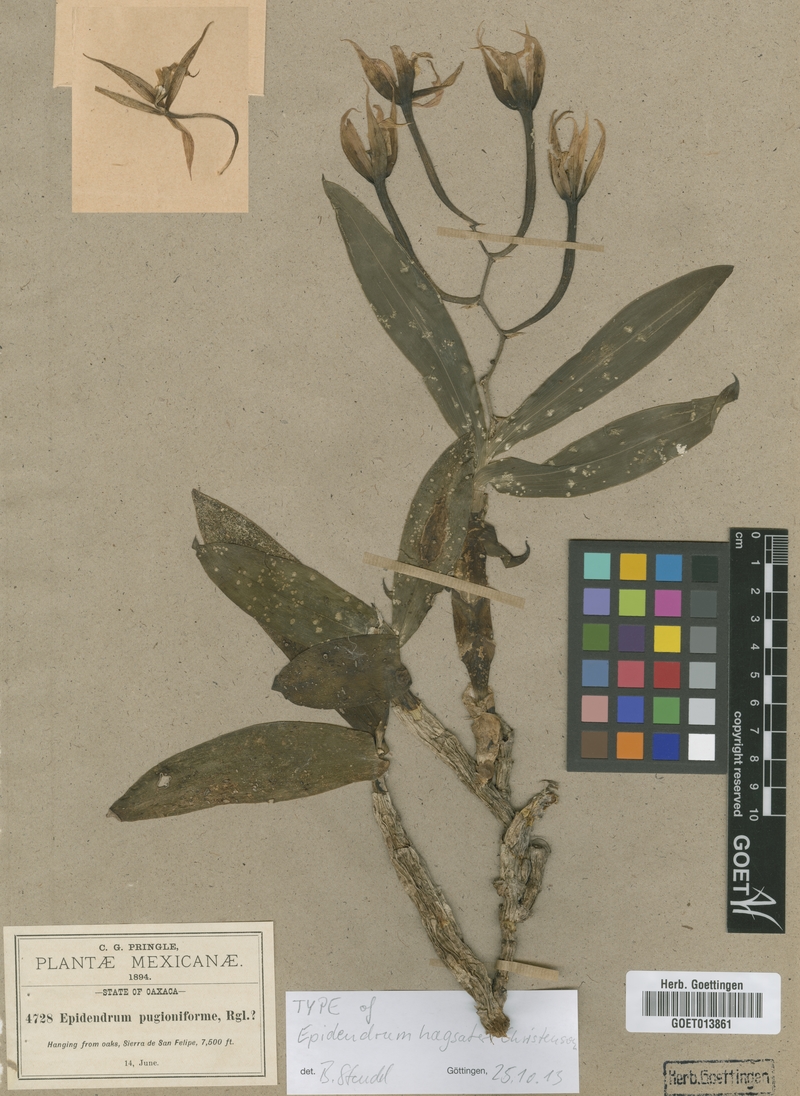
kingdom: Plantae
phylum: Tracheophyta
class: Liliopsida
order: Asparagales
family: Orchidaceae
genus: Epidendrum
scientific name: Epidendrum hagsateri
